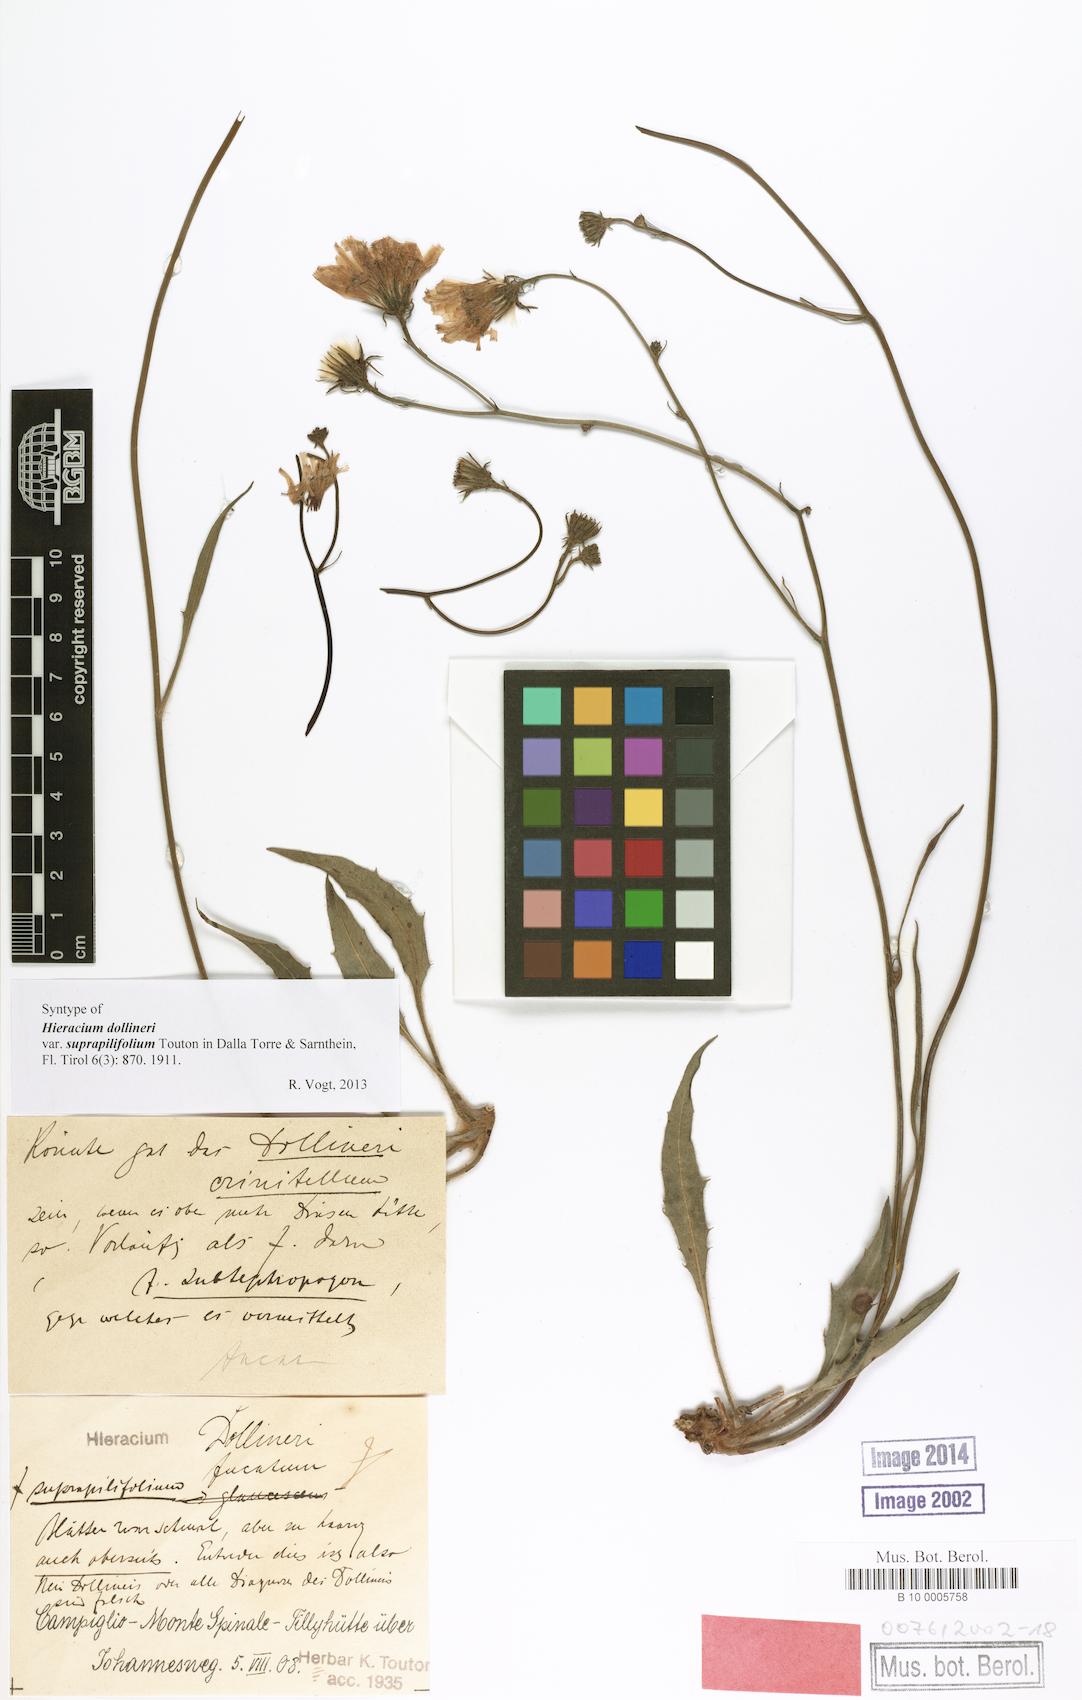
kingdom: Plantae
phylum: Tracheophyta
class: Magnoliopsida
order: Asterales
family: Asteraceae
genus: Hieracium
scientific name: Hieracium dollineri
